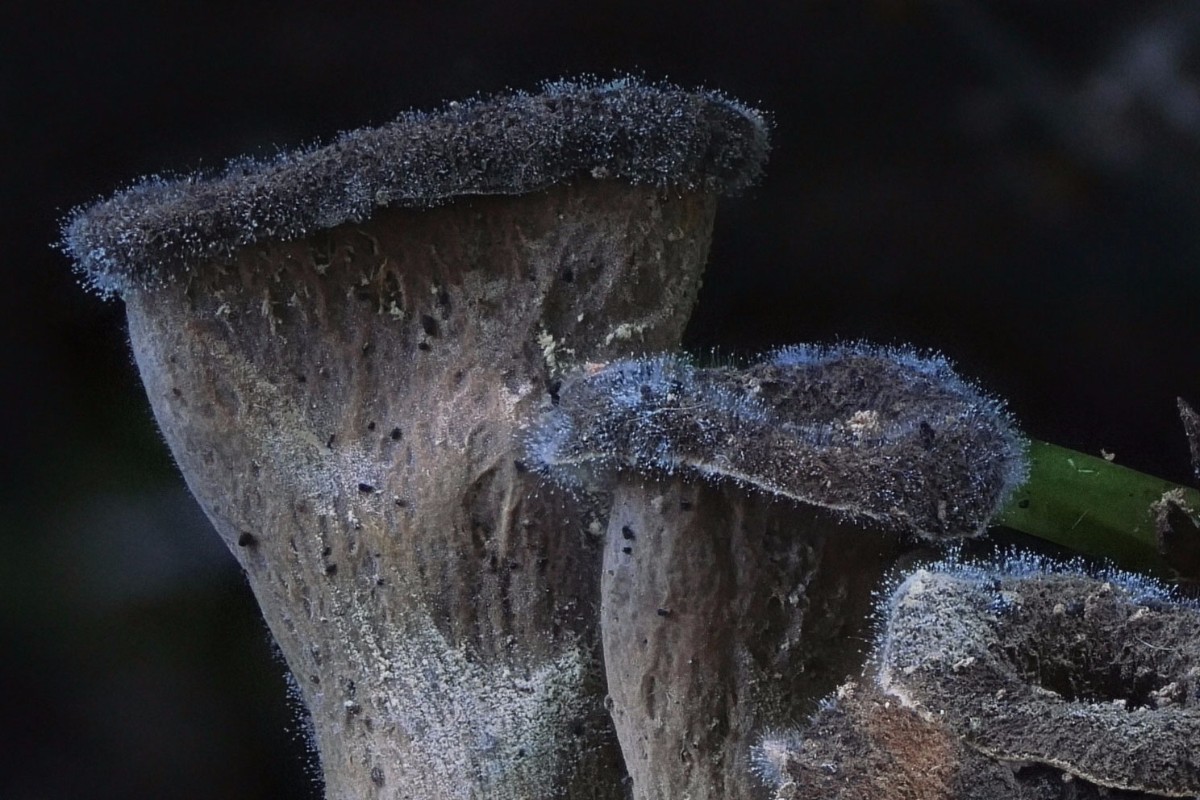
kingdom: Fungi
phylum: Basidiomycota
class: Agaricomycetes
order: Cantharellales
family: Hydnaceae
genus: Craterellus
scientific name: Craterellus cornucopioides
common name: trompetsvamp
